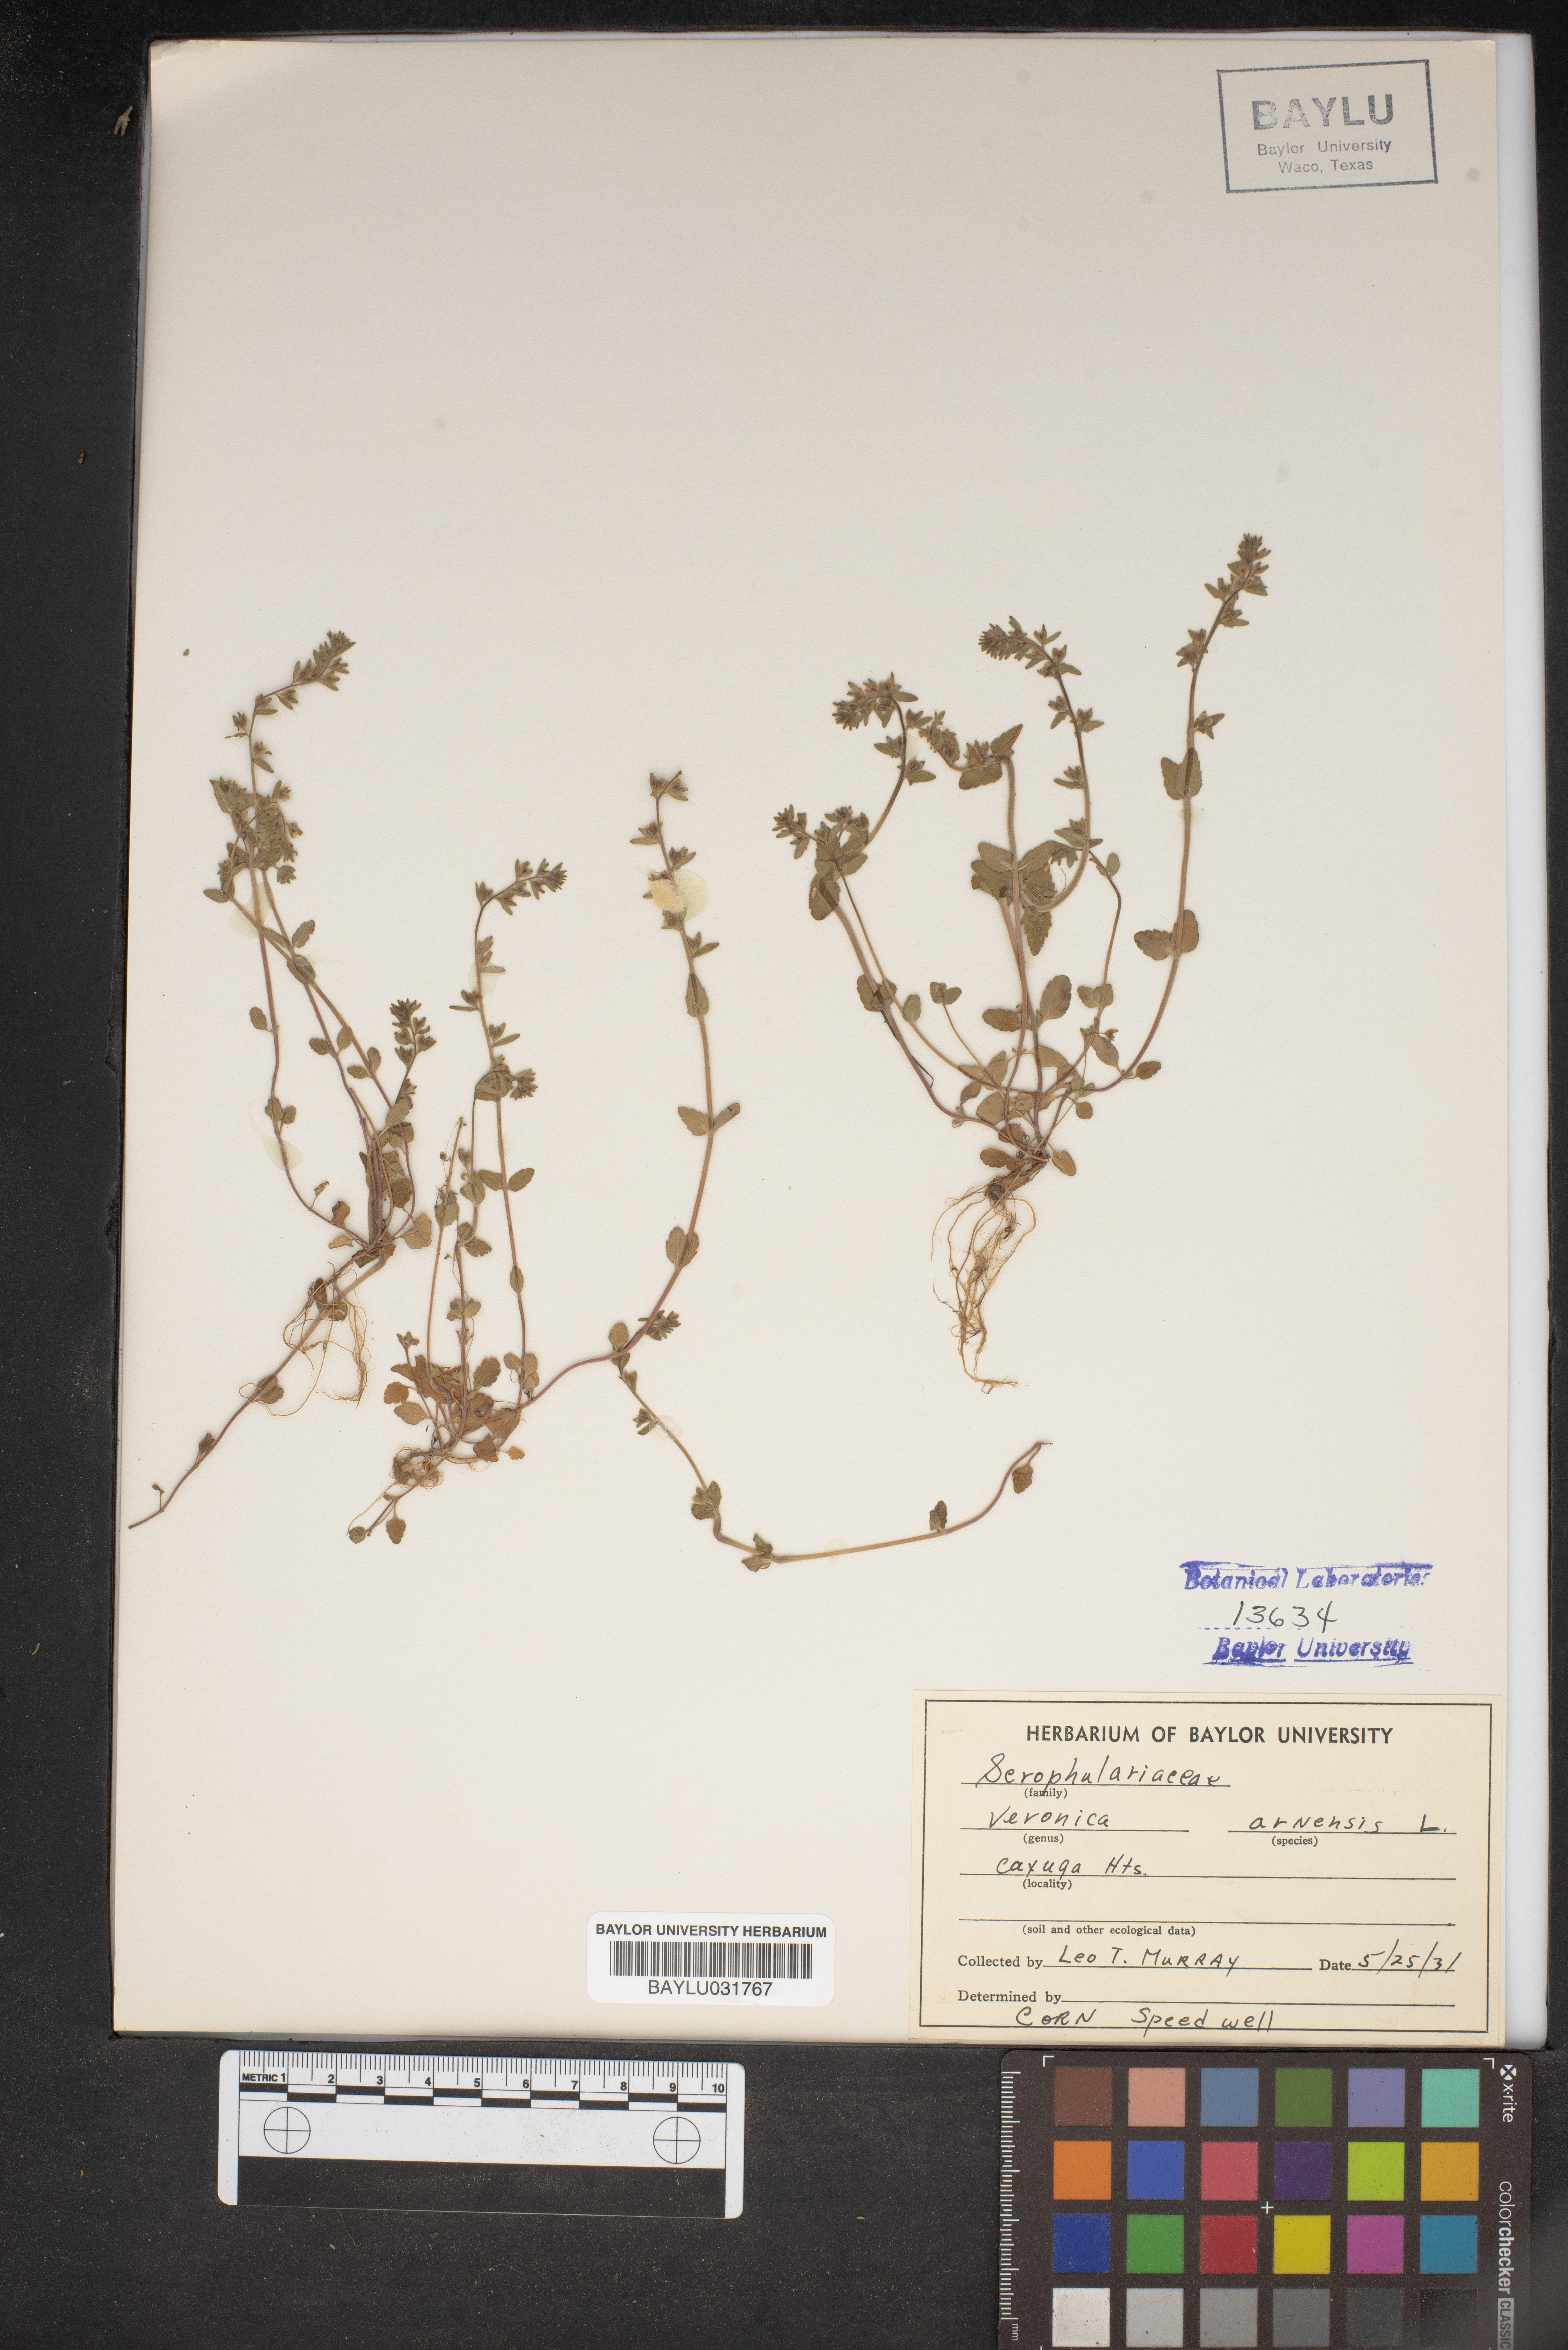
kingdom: Plantae
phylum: Tracheophyta
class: Magnoliopsida
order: Lamiales
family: Plantaginaceae
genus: Veronica
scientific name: Veronica arvensis
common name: Corn speedwell
